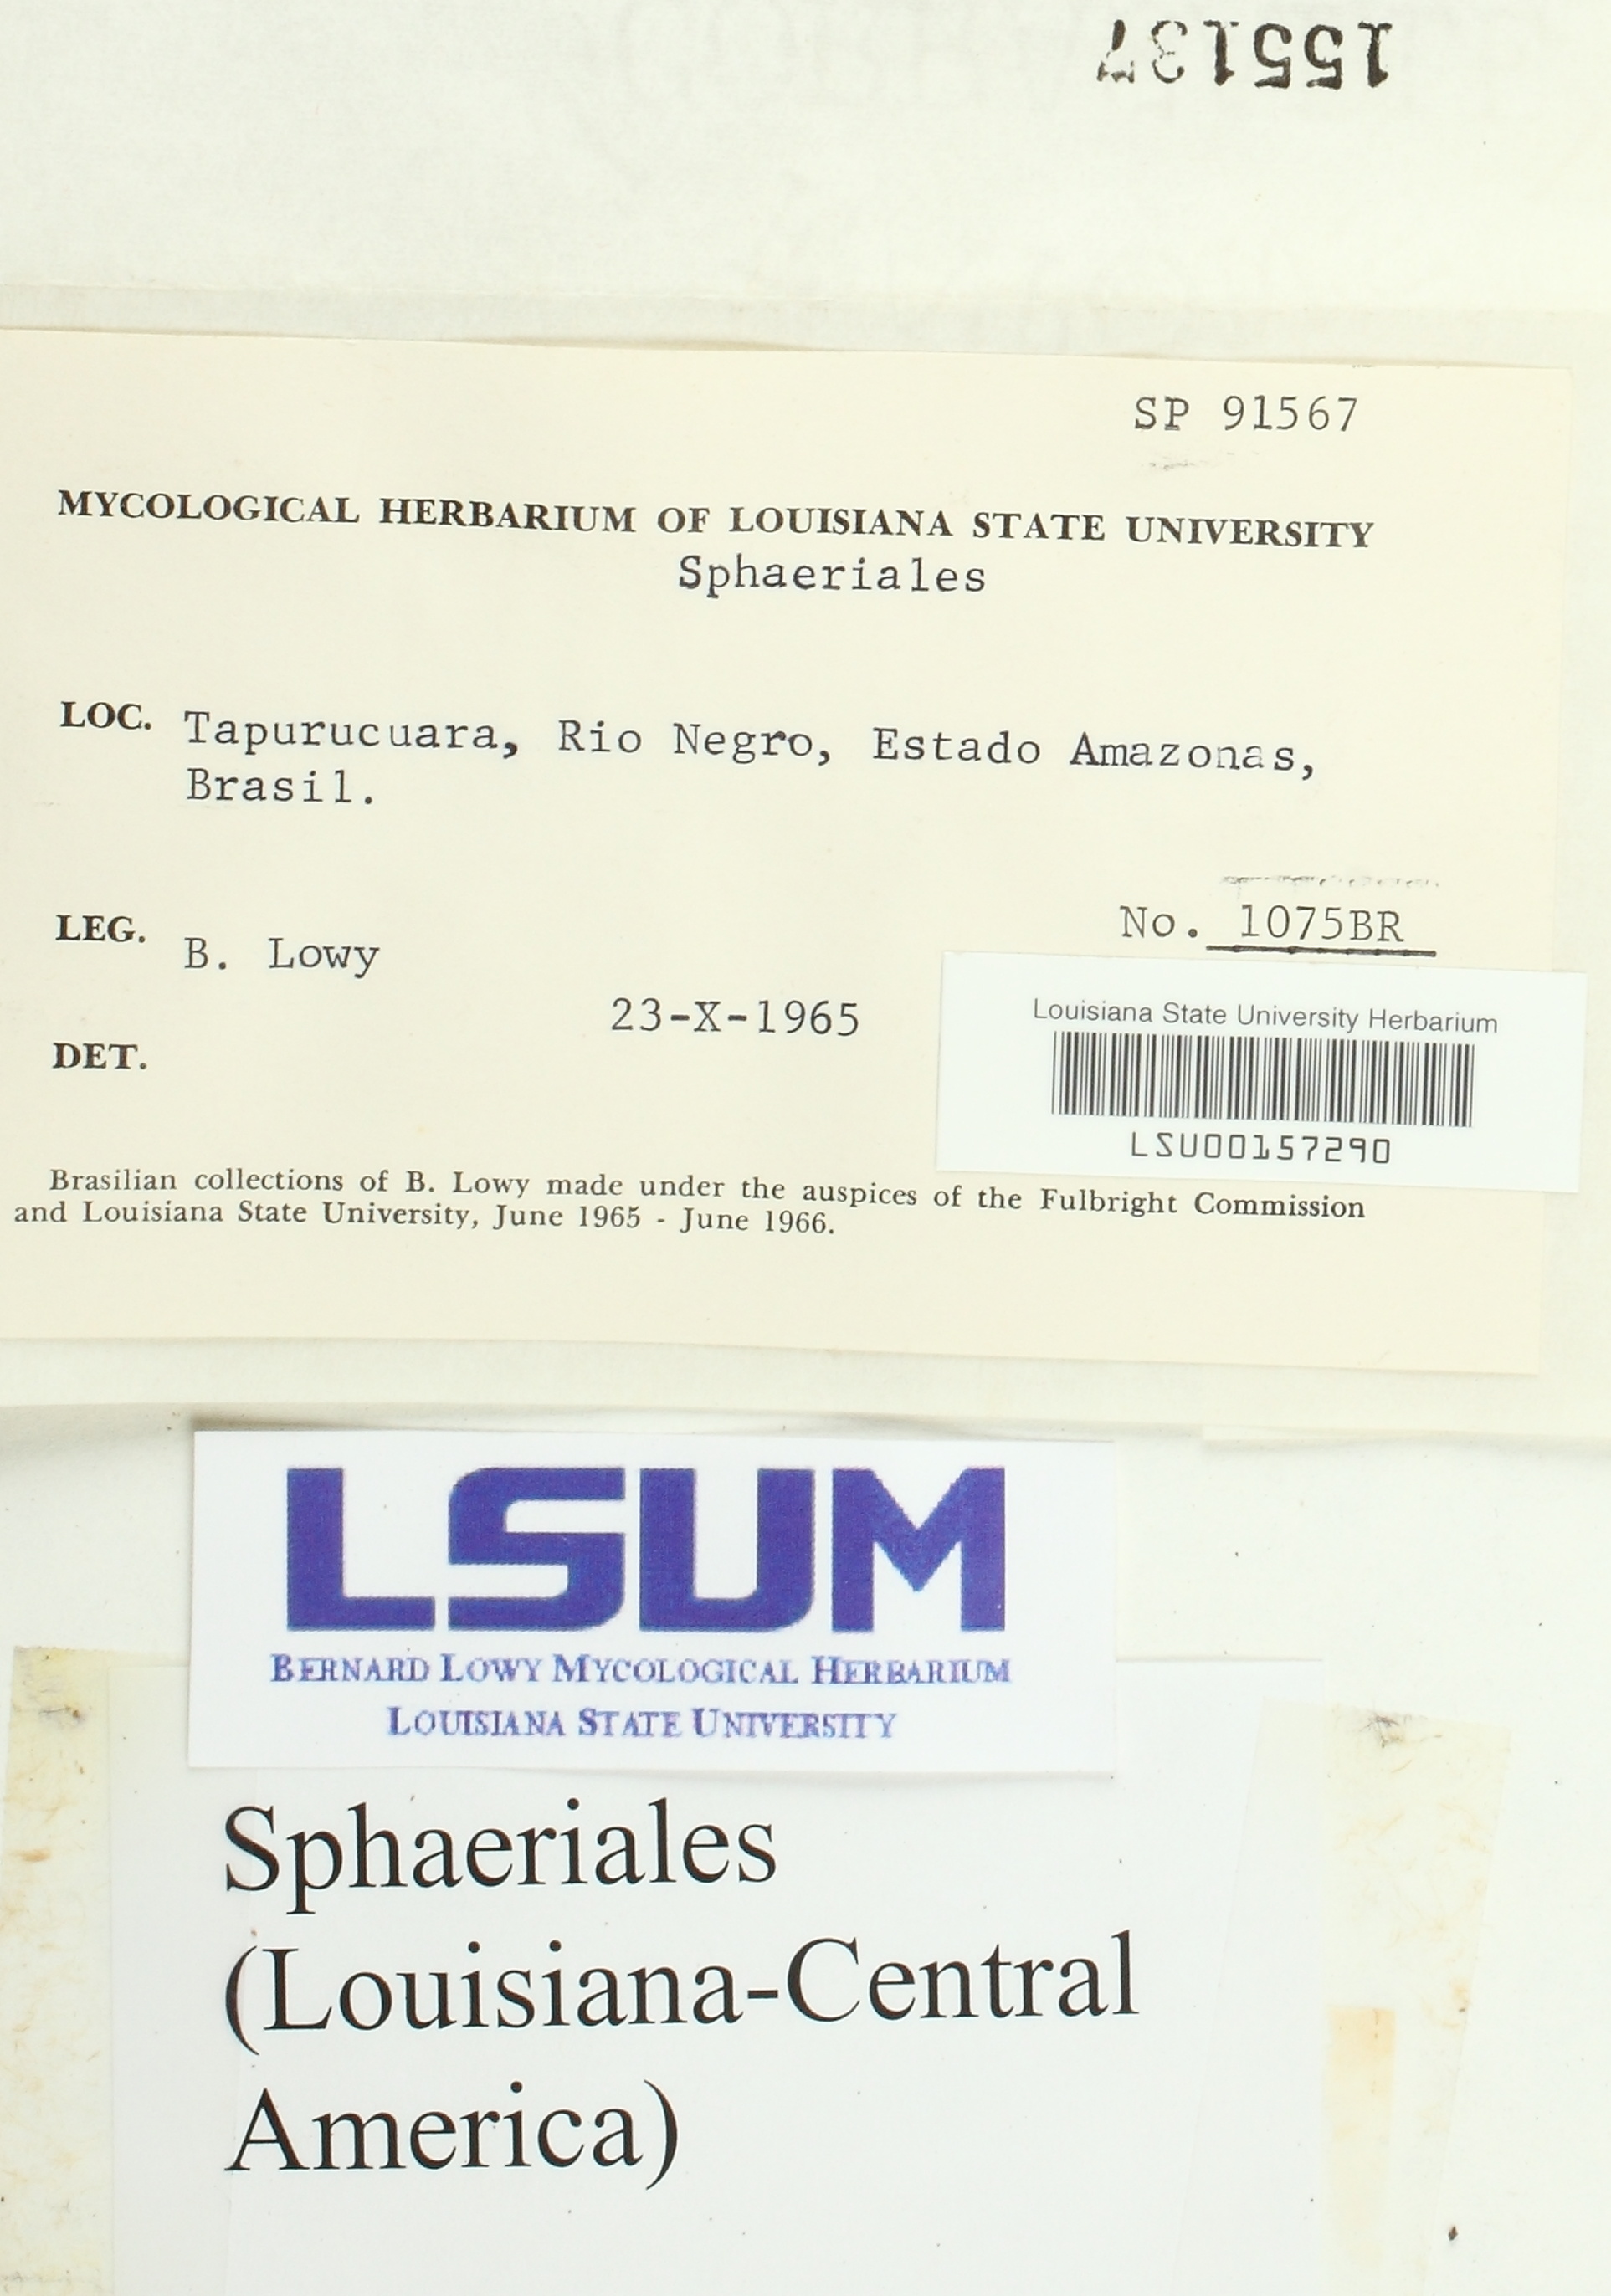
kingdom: Fungi
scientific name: Fungi
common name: Fungi
